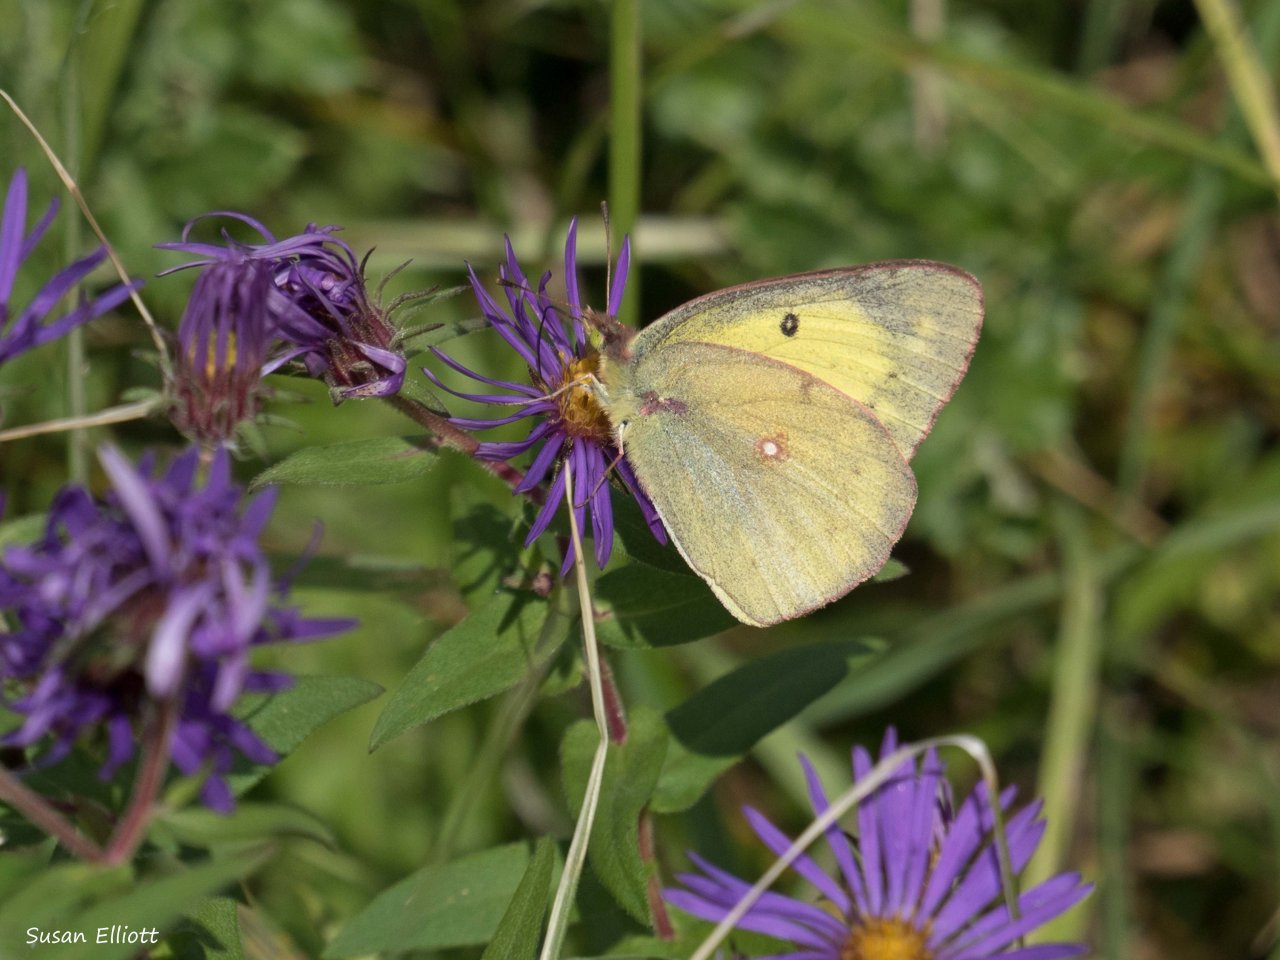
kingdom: Animalia
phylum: Arthropoda
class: Insecta
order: Lepidoptera
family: Pieridae
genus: Colias
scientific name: Colias philodice
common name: Clouded Sulphur
